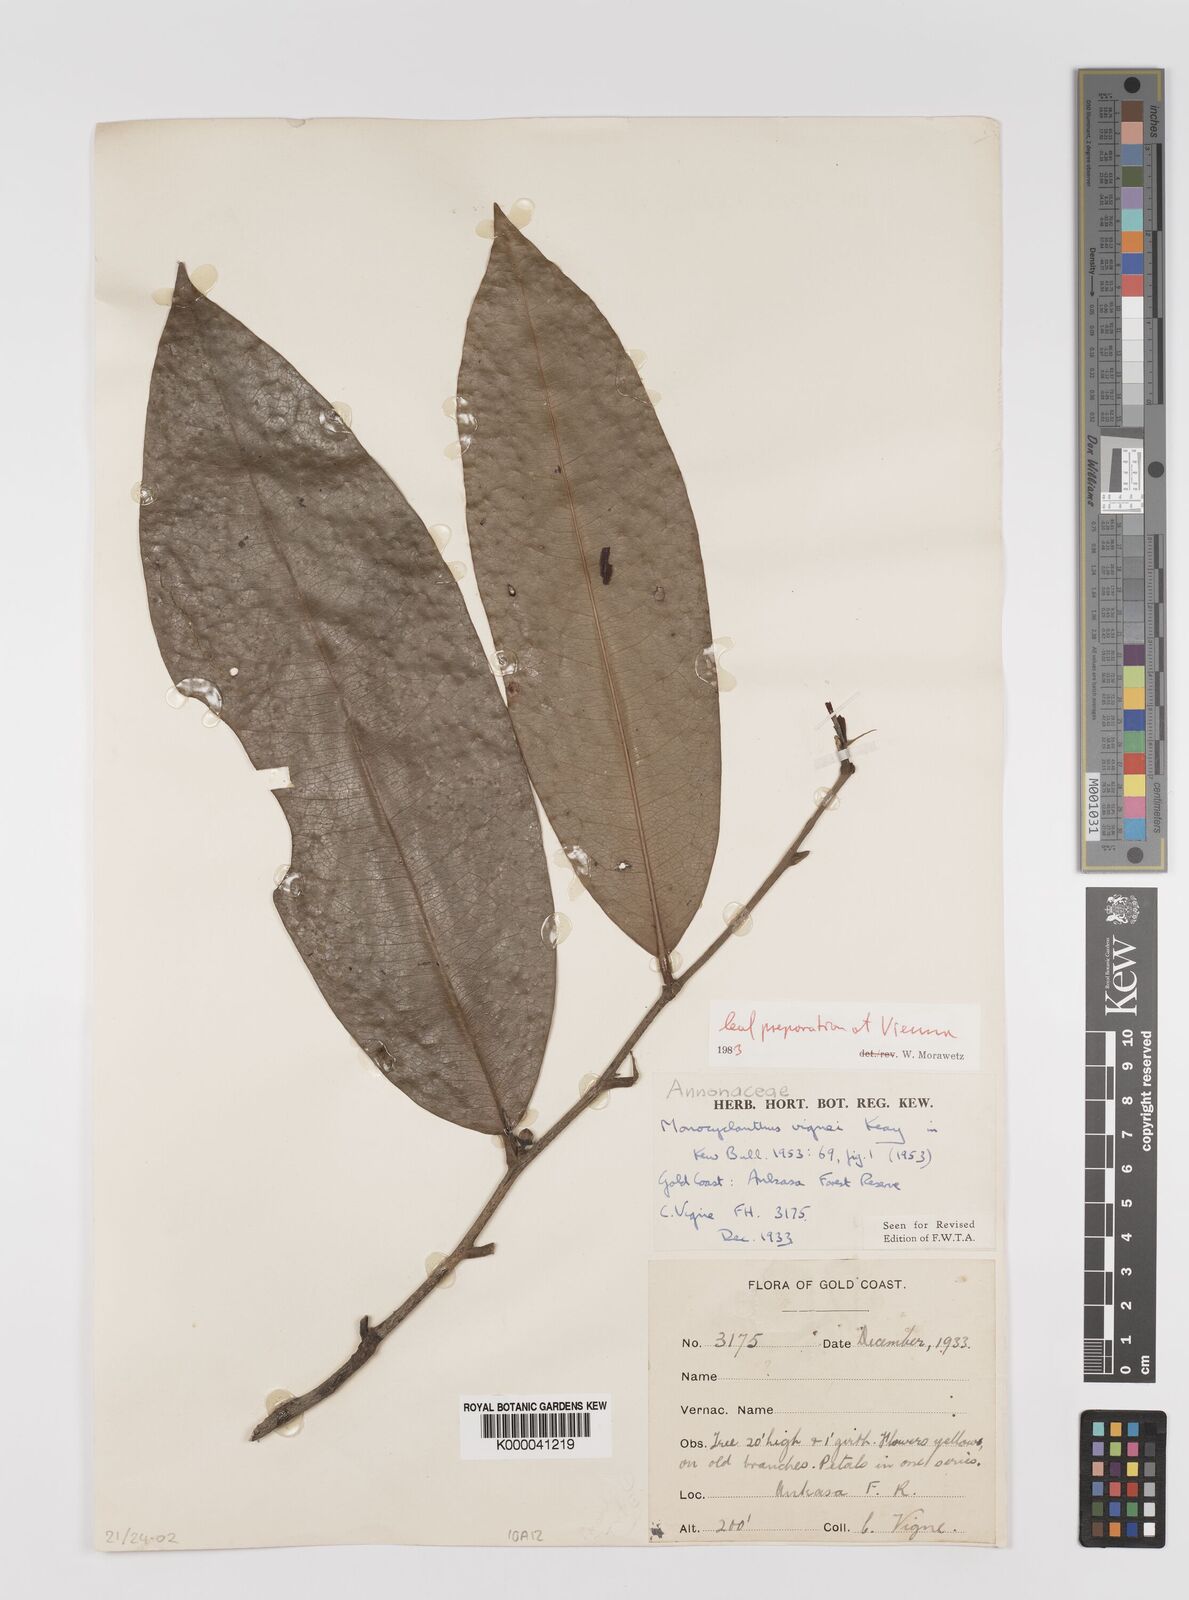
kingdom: Plantae
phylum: Tracheophyta
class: Magnoliopsida
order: Magnoliales
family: Annonaceae
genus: Monocyclanthus
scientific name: Monocyclanthus vignei
